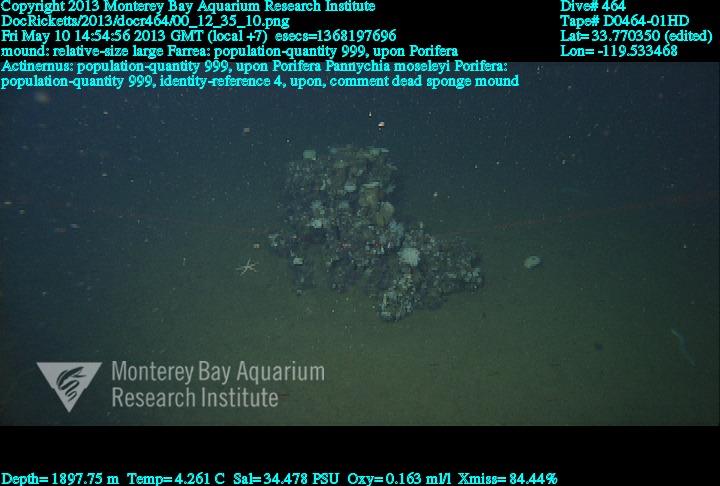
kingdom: Animalia
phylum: Porifera
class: Hexactinellida
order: Sceptrulophora
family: Farreidae
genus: Farrea
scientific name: Farrea
